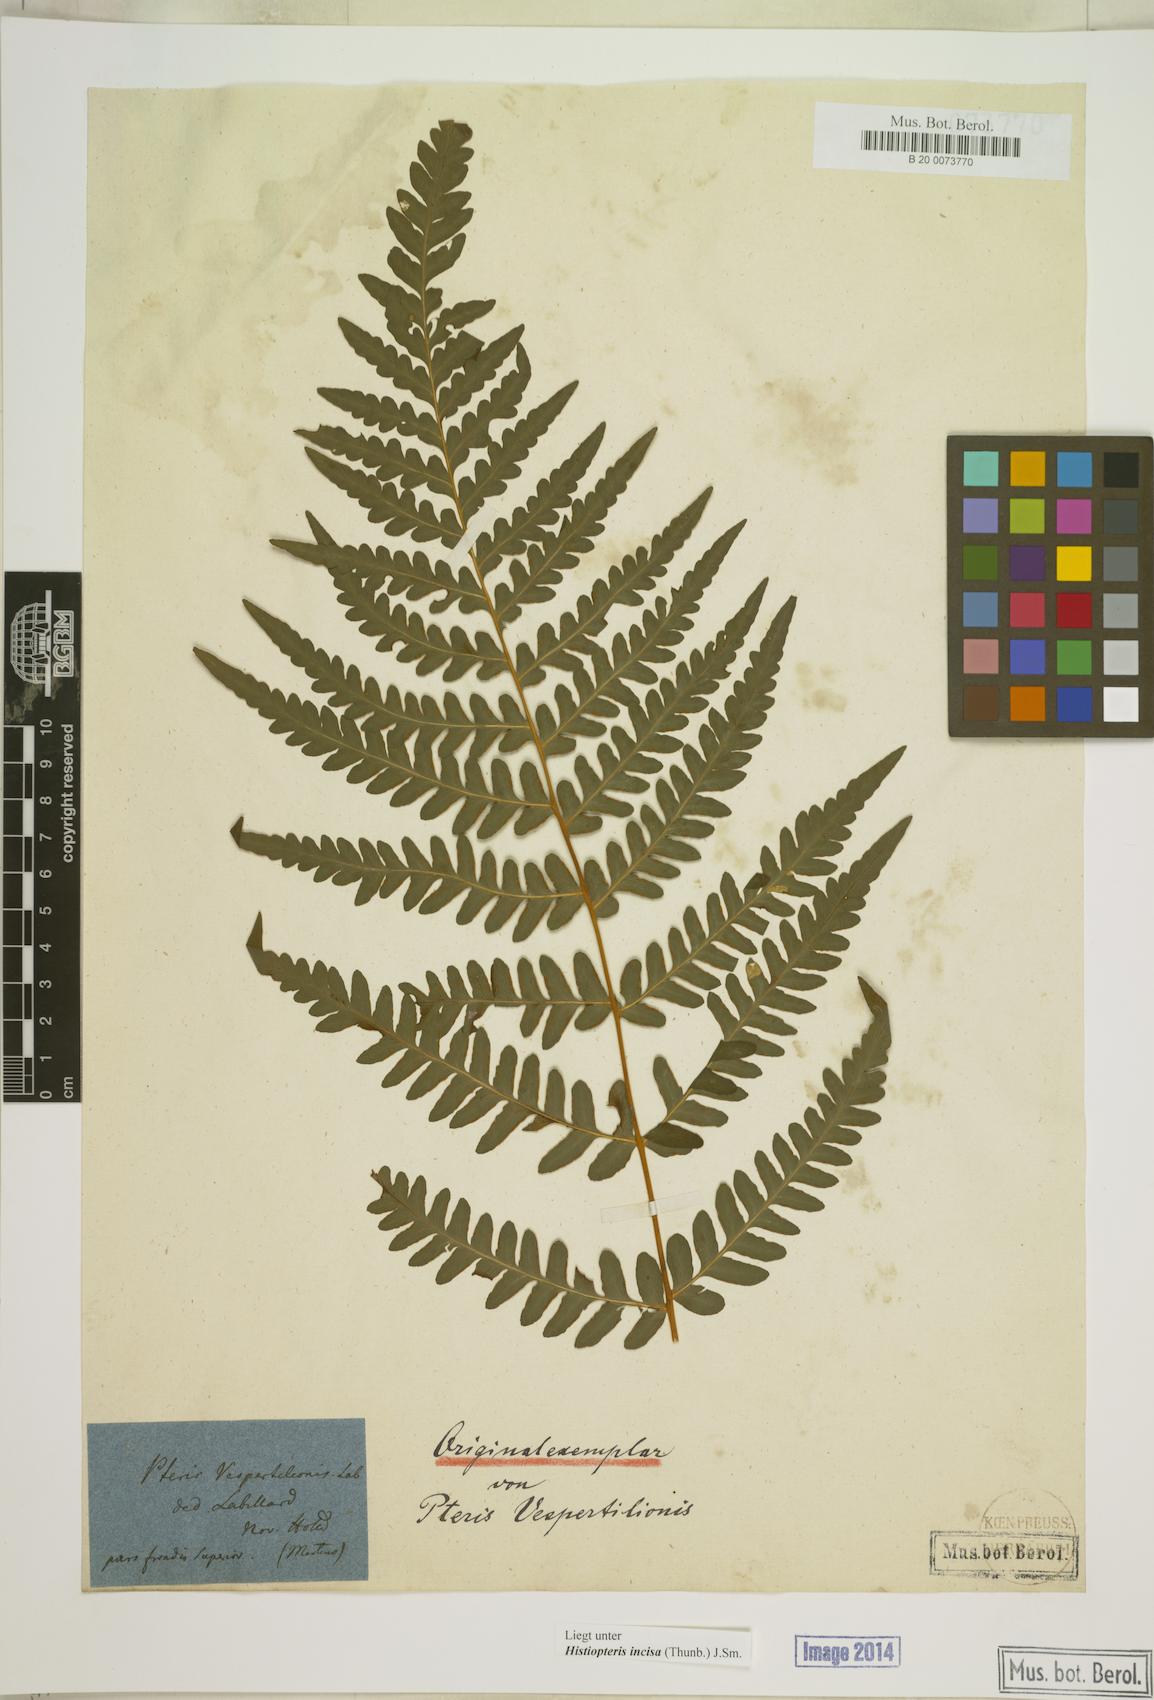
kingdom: Plantae
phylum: Tracheophyta
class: Polypodiopsida
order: Polypodiales
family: Dennstaedtiaceae
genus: Histiopteris
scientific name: Histiopteris incisa
